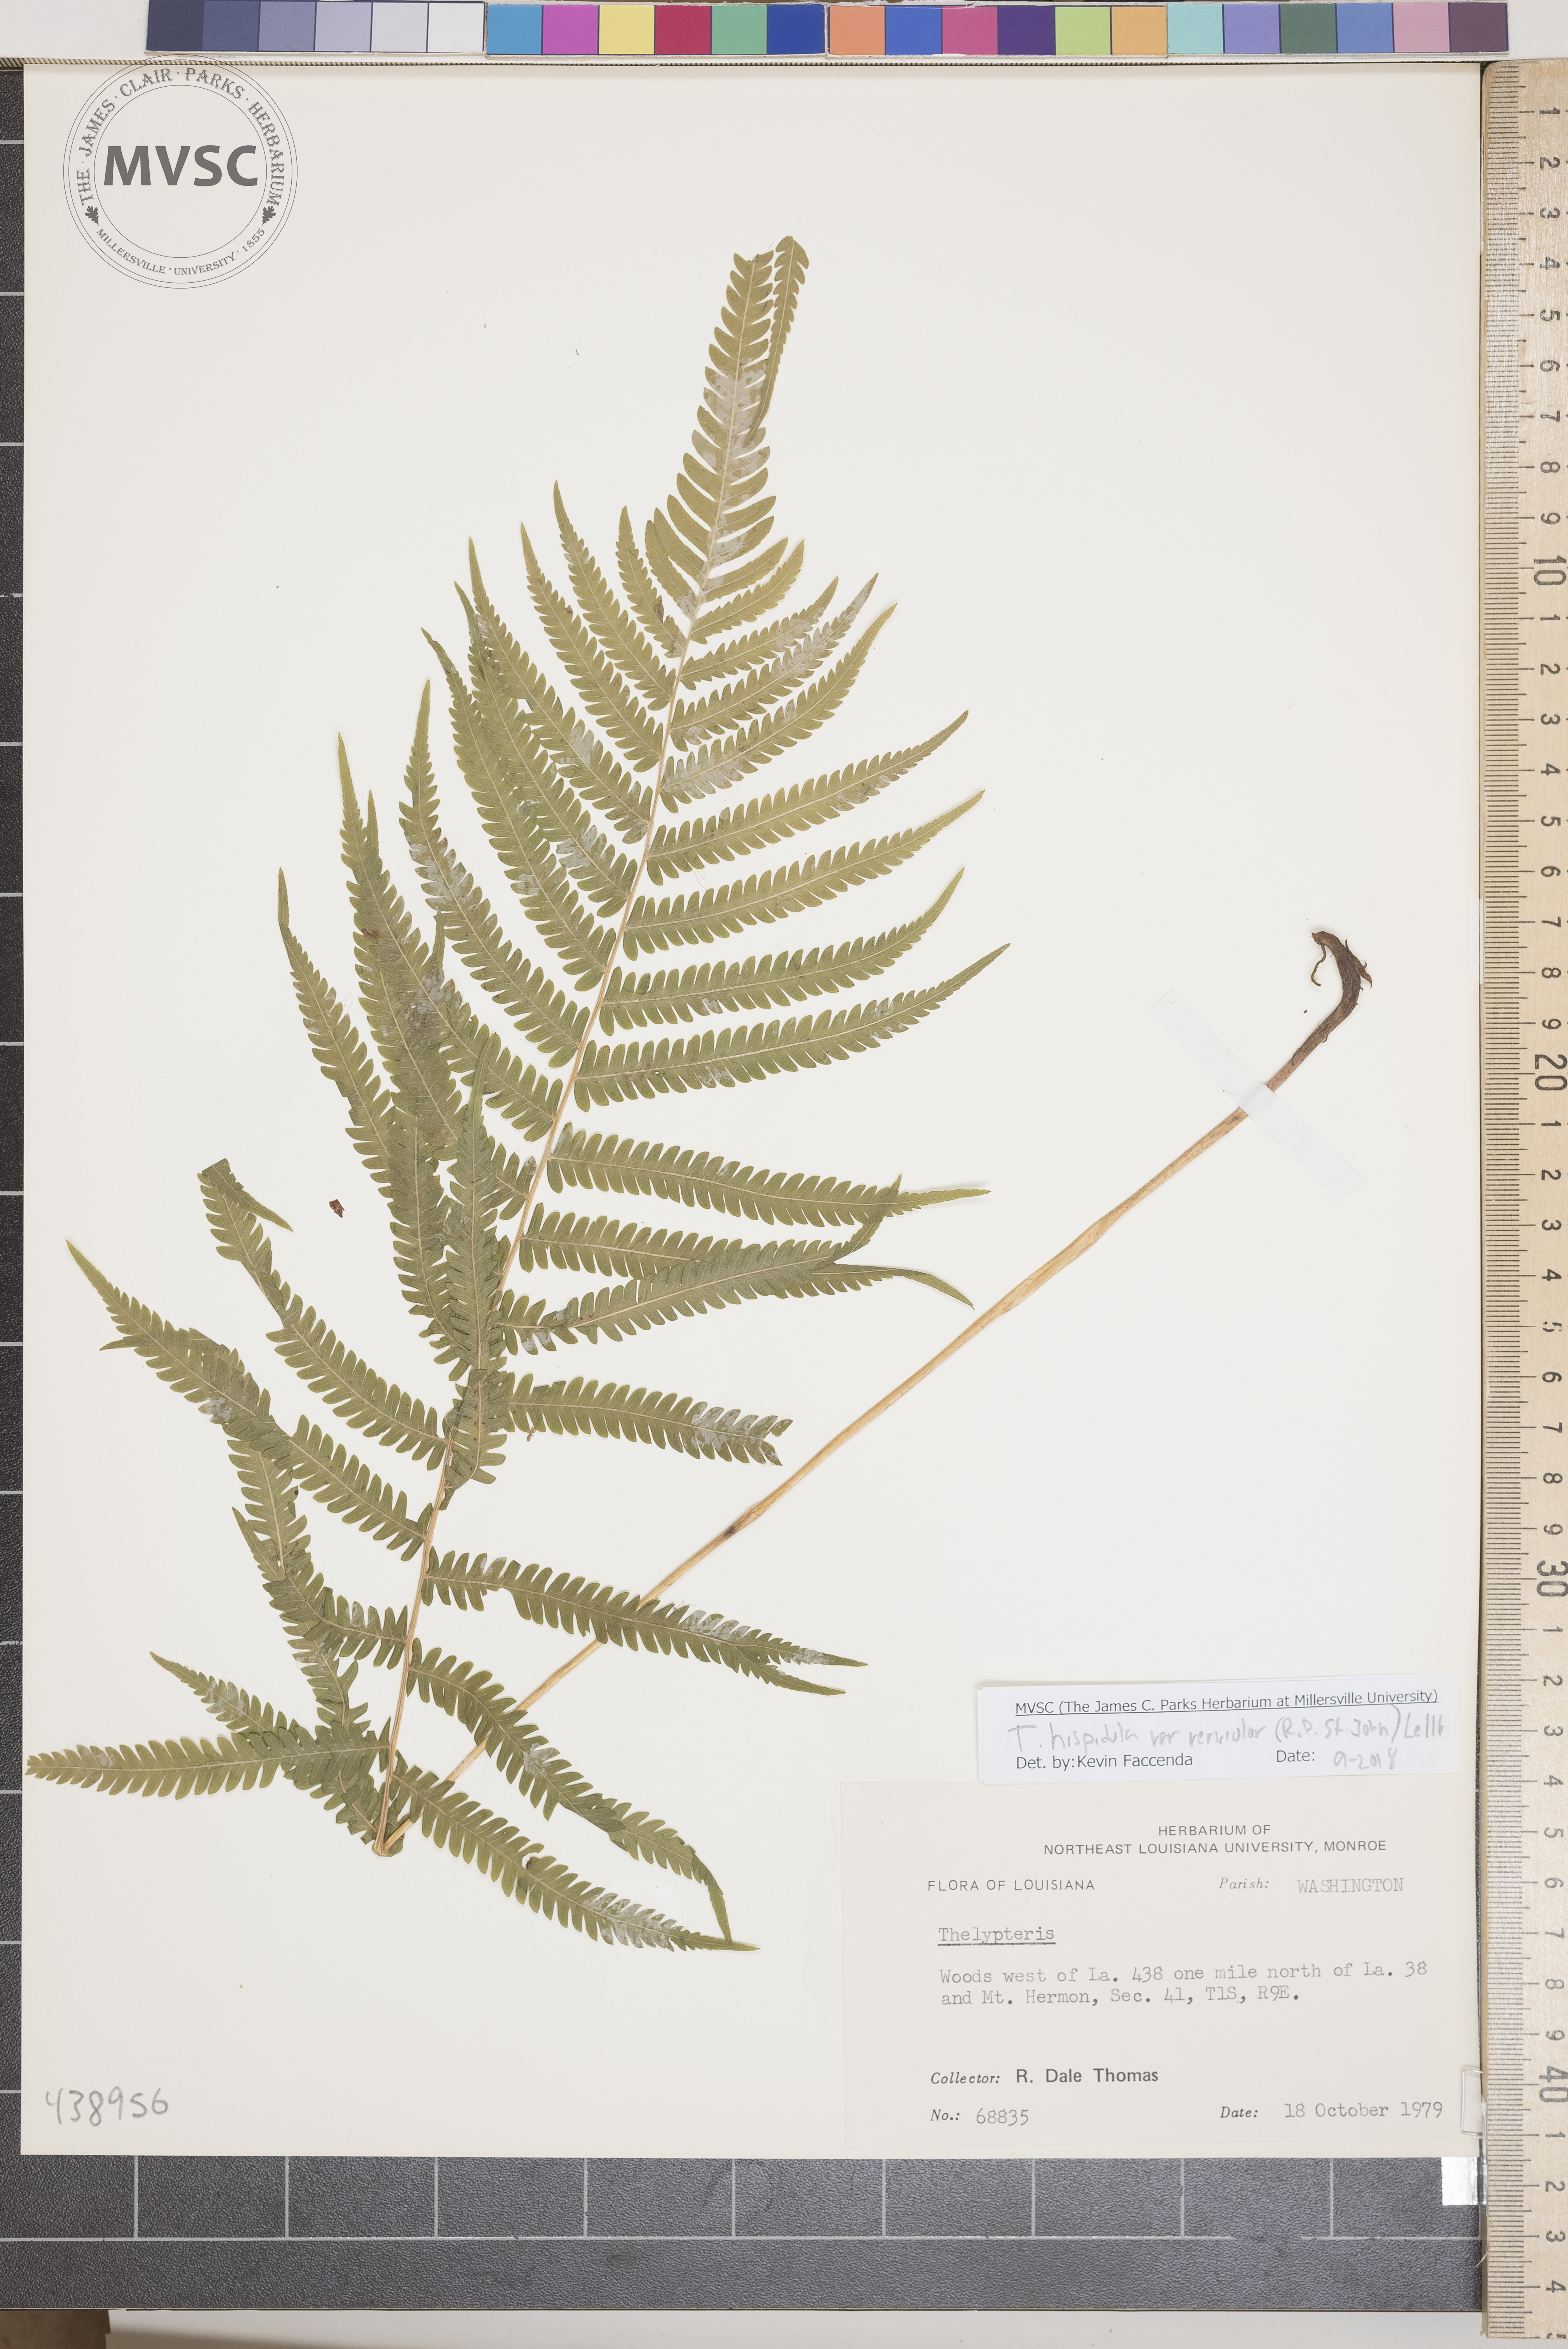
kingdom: Plantae
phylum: Tracheophyta
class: Polypodiopsida
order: Polypodiales
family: Thelypteridaceae
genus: Pelazoneuron
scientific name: Pelazoneuron kunthii
